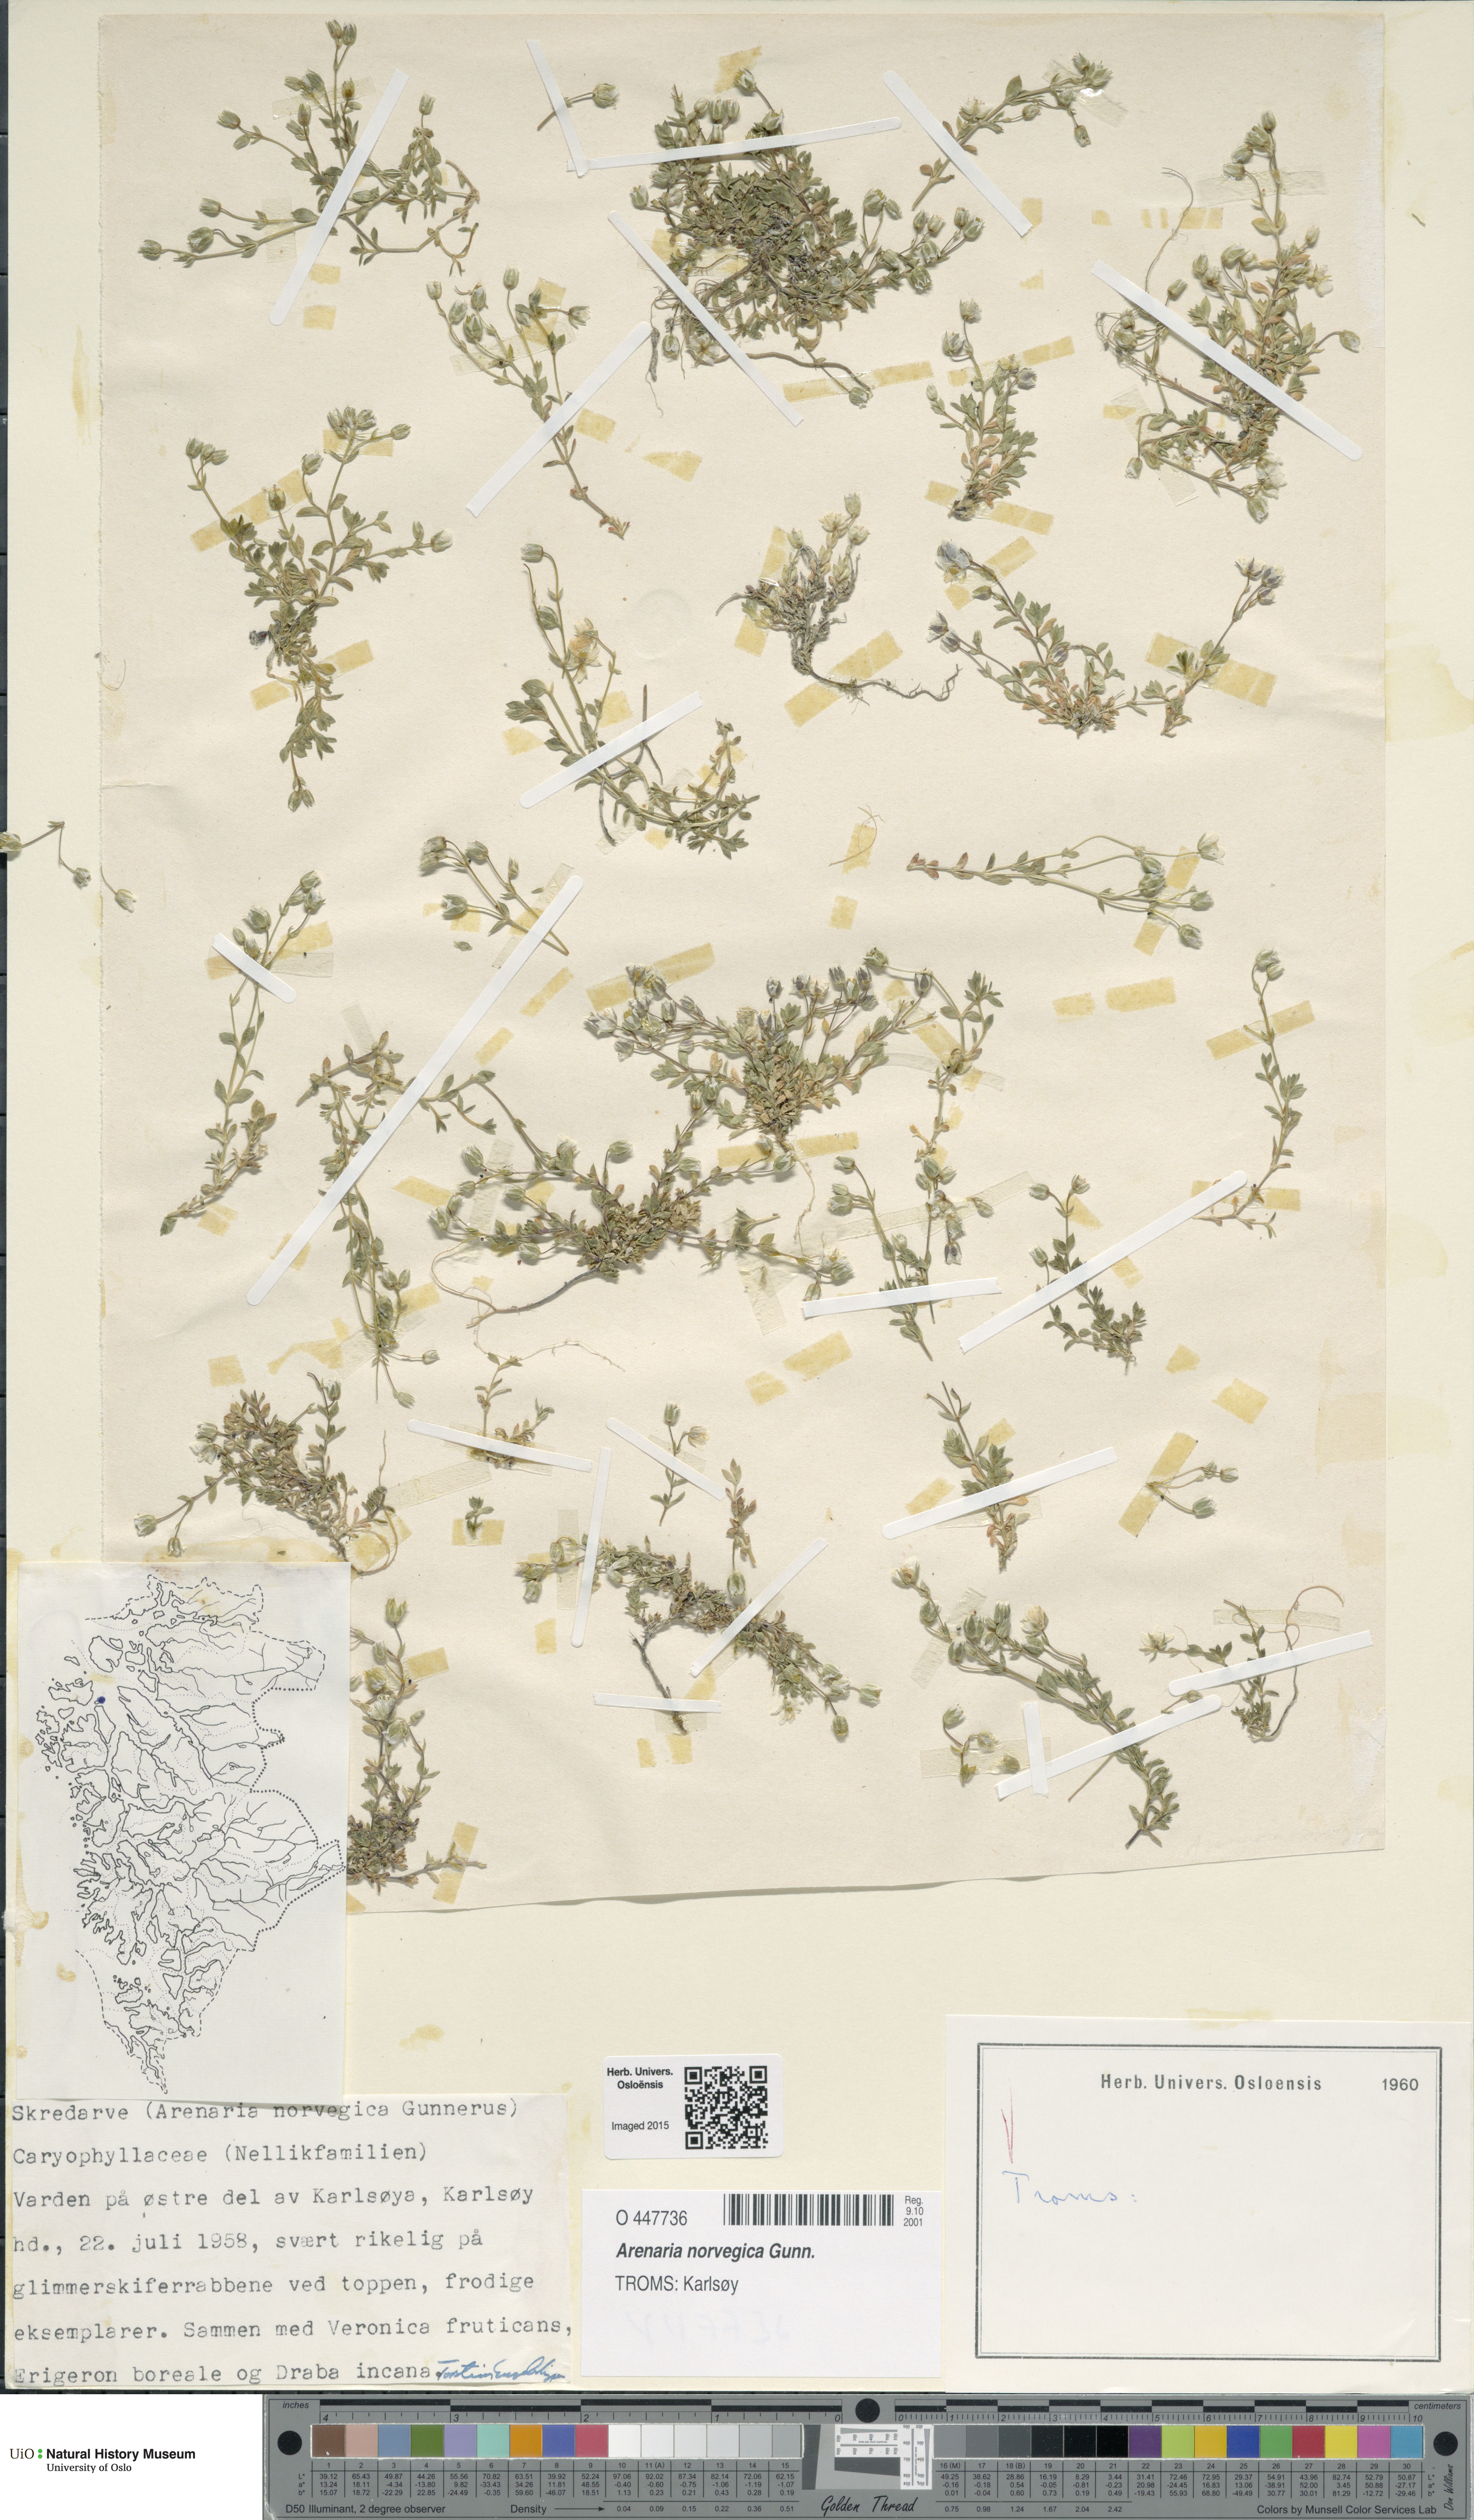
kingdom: Plantae
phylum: Tracheophyta
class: Magnoliopsida
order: Caryophyllales
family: Caryophyllaceae
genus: Arenaria
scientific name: Arenaria norvegica
